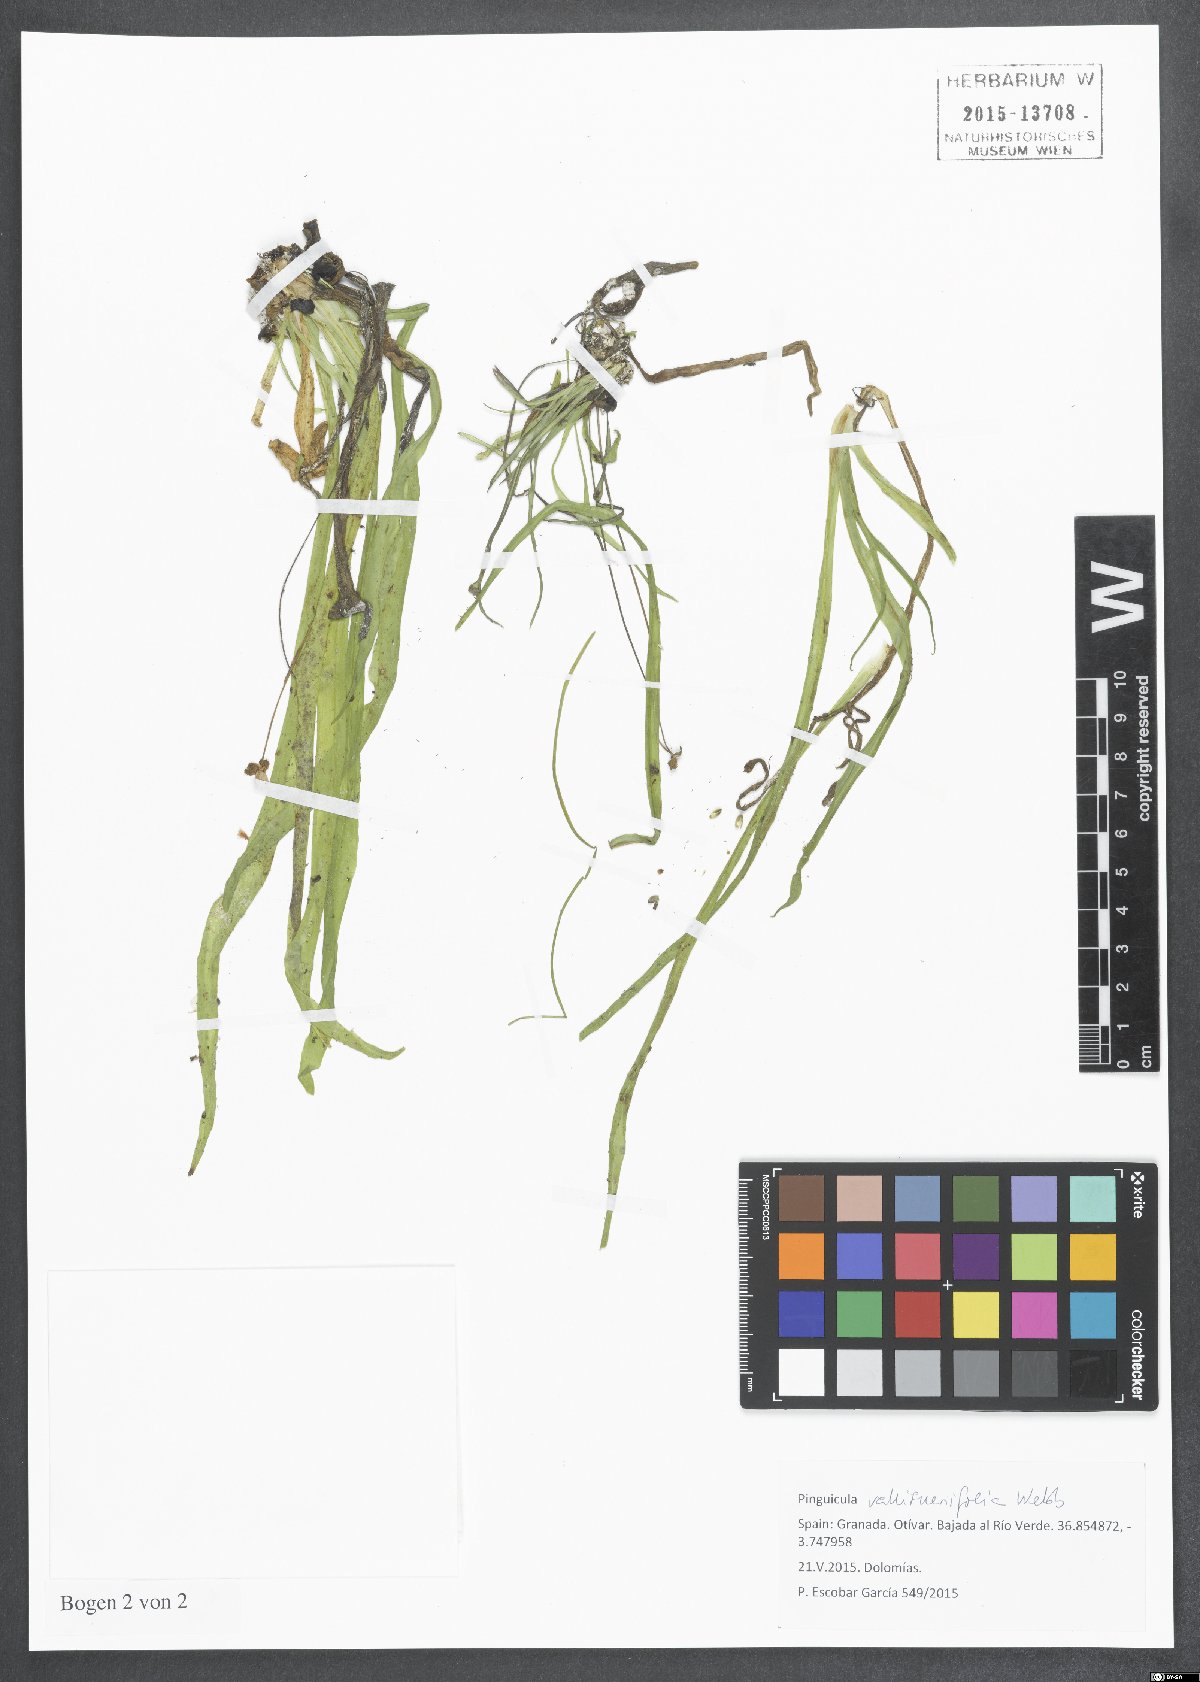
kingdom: Plantae
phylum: Tracheophyta
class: Magnoliopsida
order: Lamiales
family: Lentibulariaceae
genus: Pinguicula
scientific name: Pinguicula vallisneriifolia
